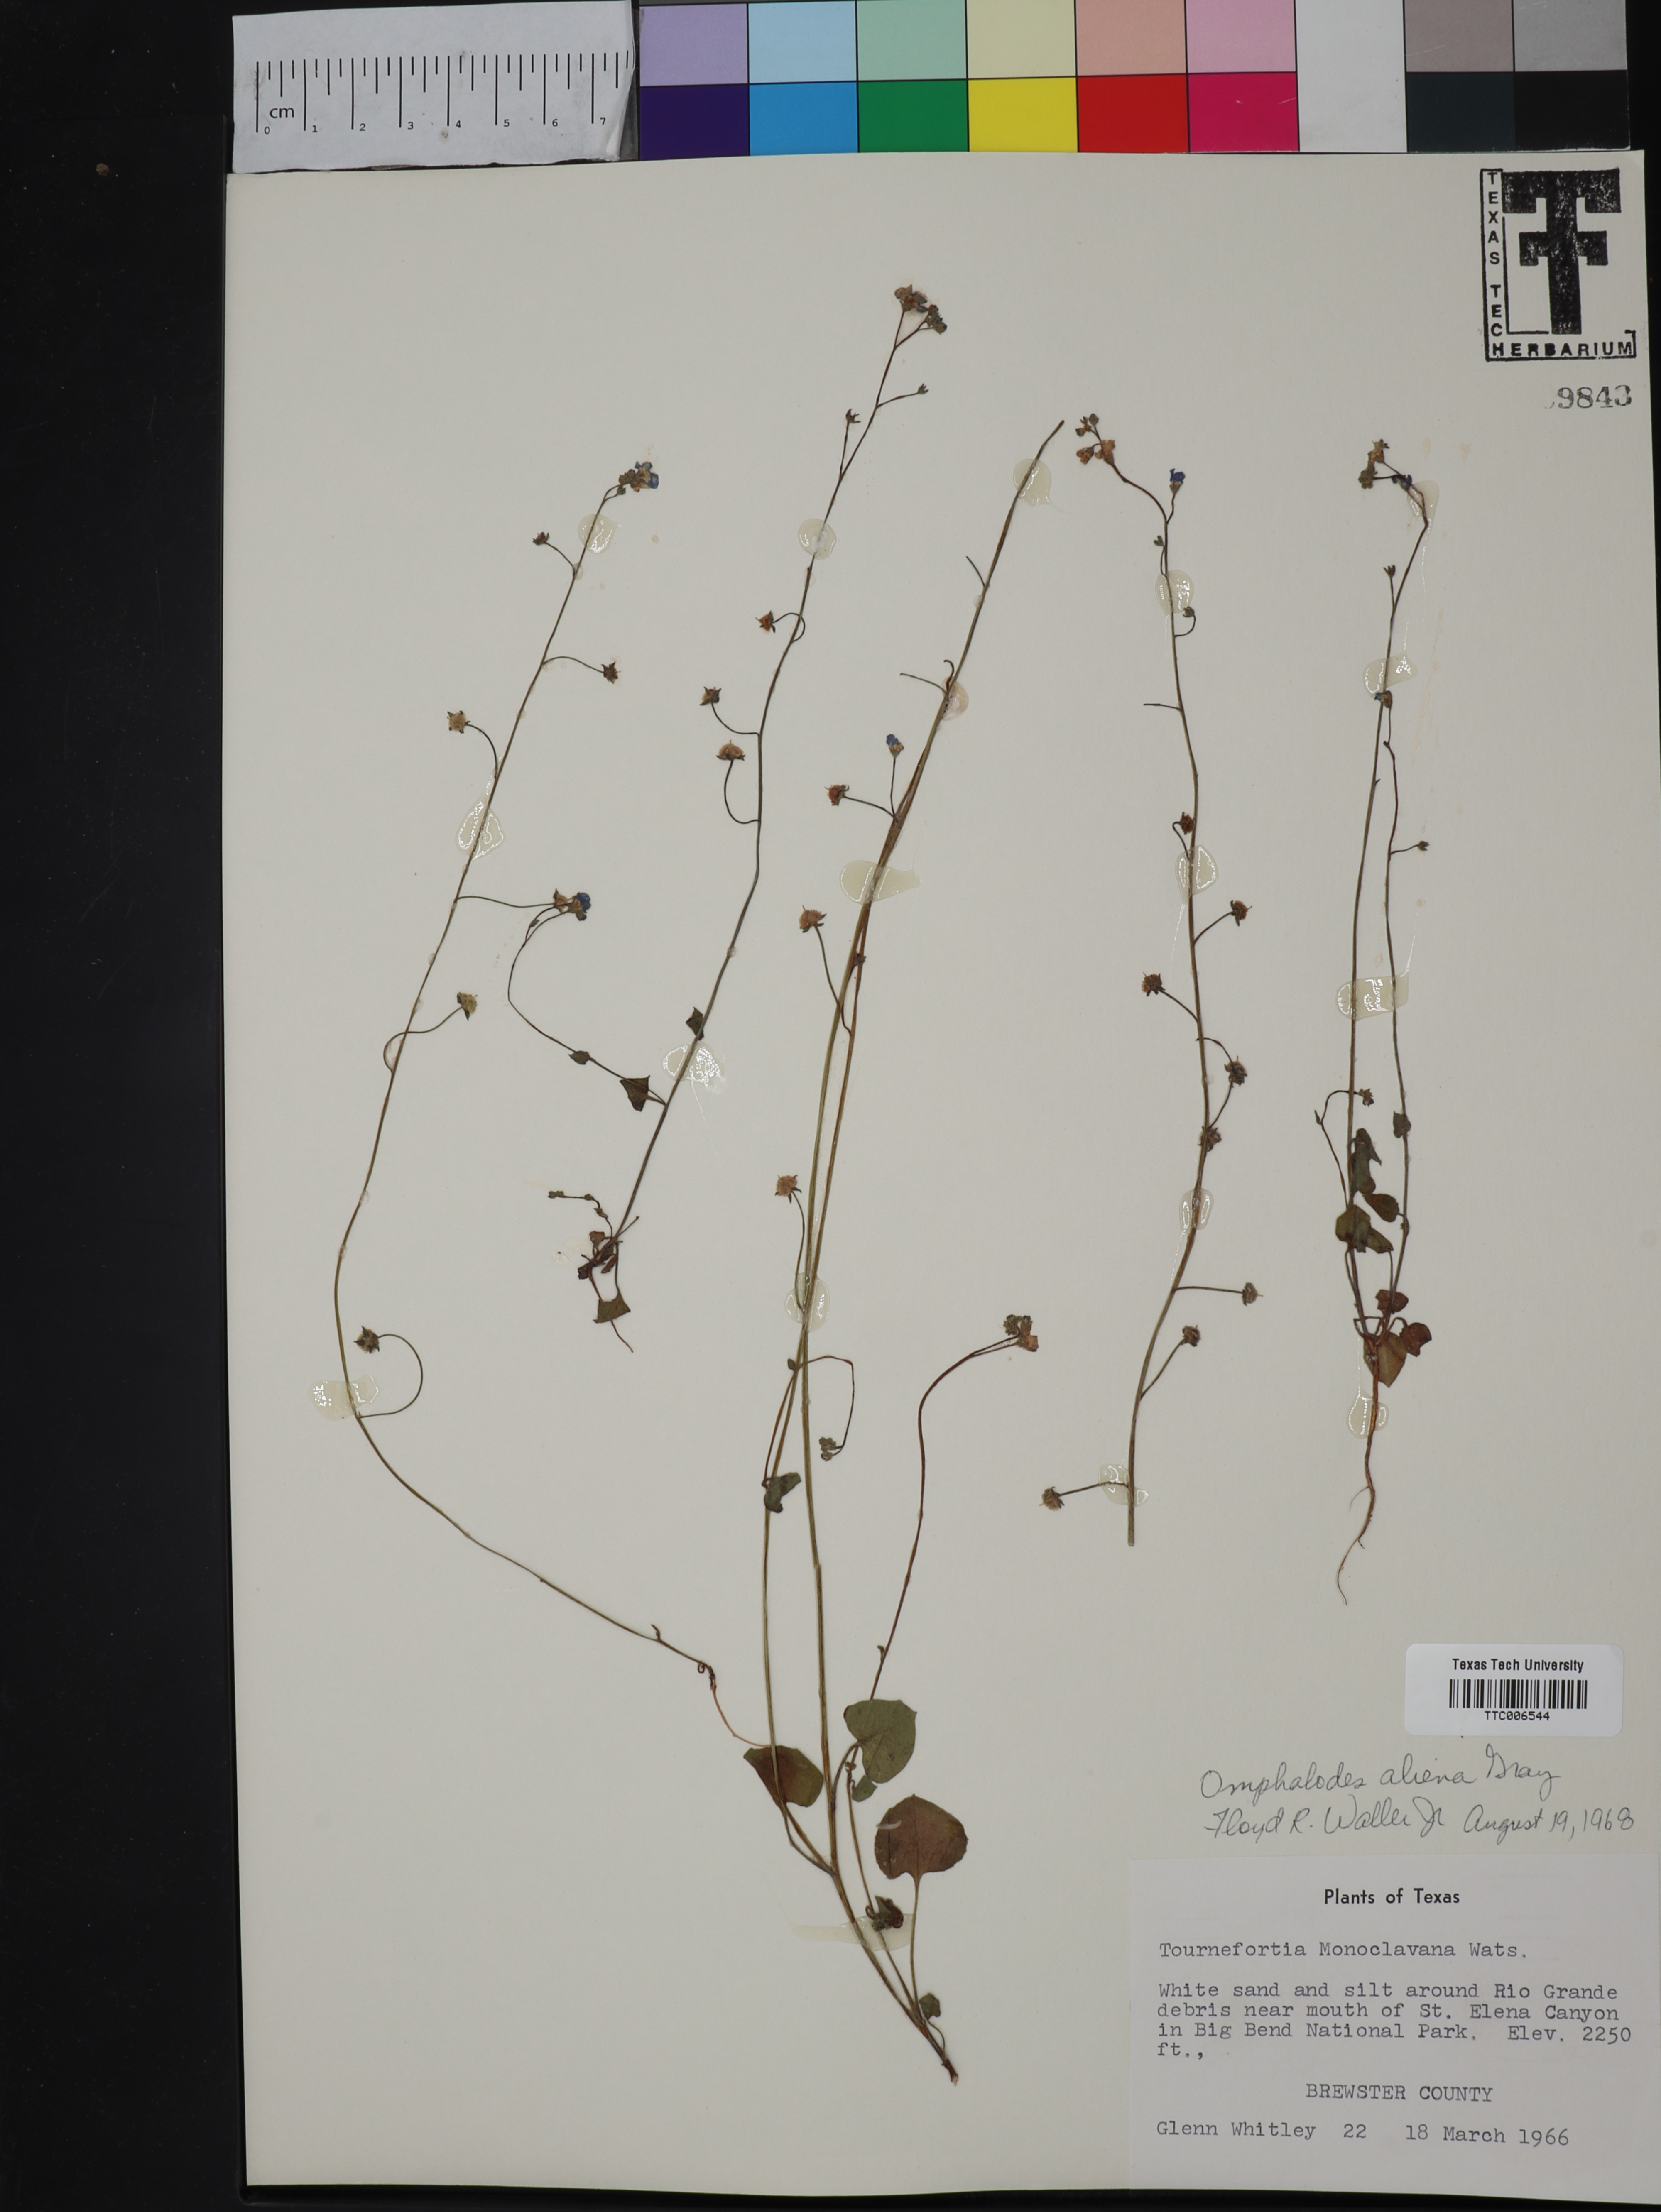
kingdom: Plantae
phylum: Tracheophyta
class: Magnoliopsida
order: Boraginales
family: Boraginaceae
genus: Omphalodes
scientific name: Omphalodes aliena
